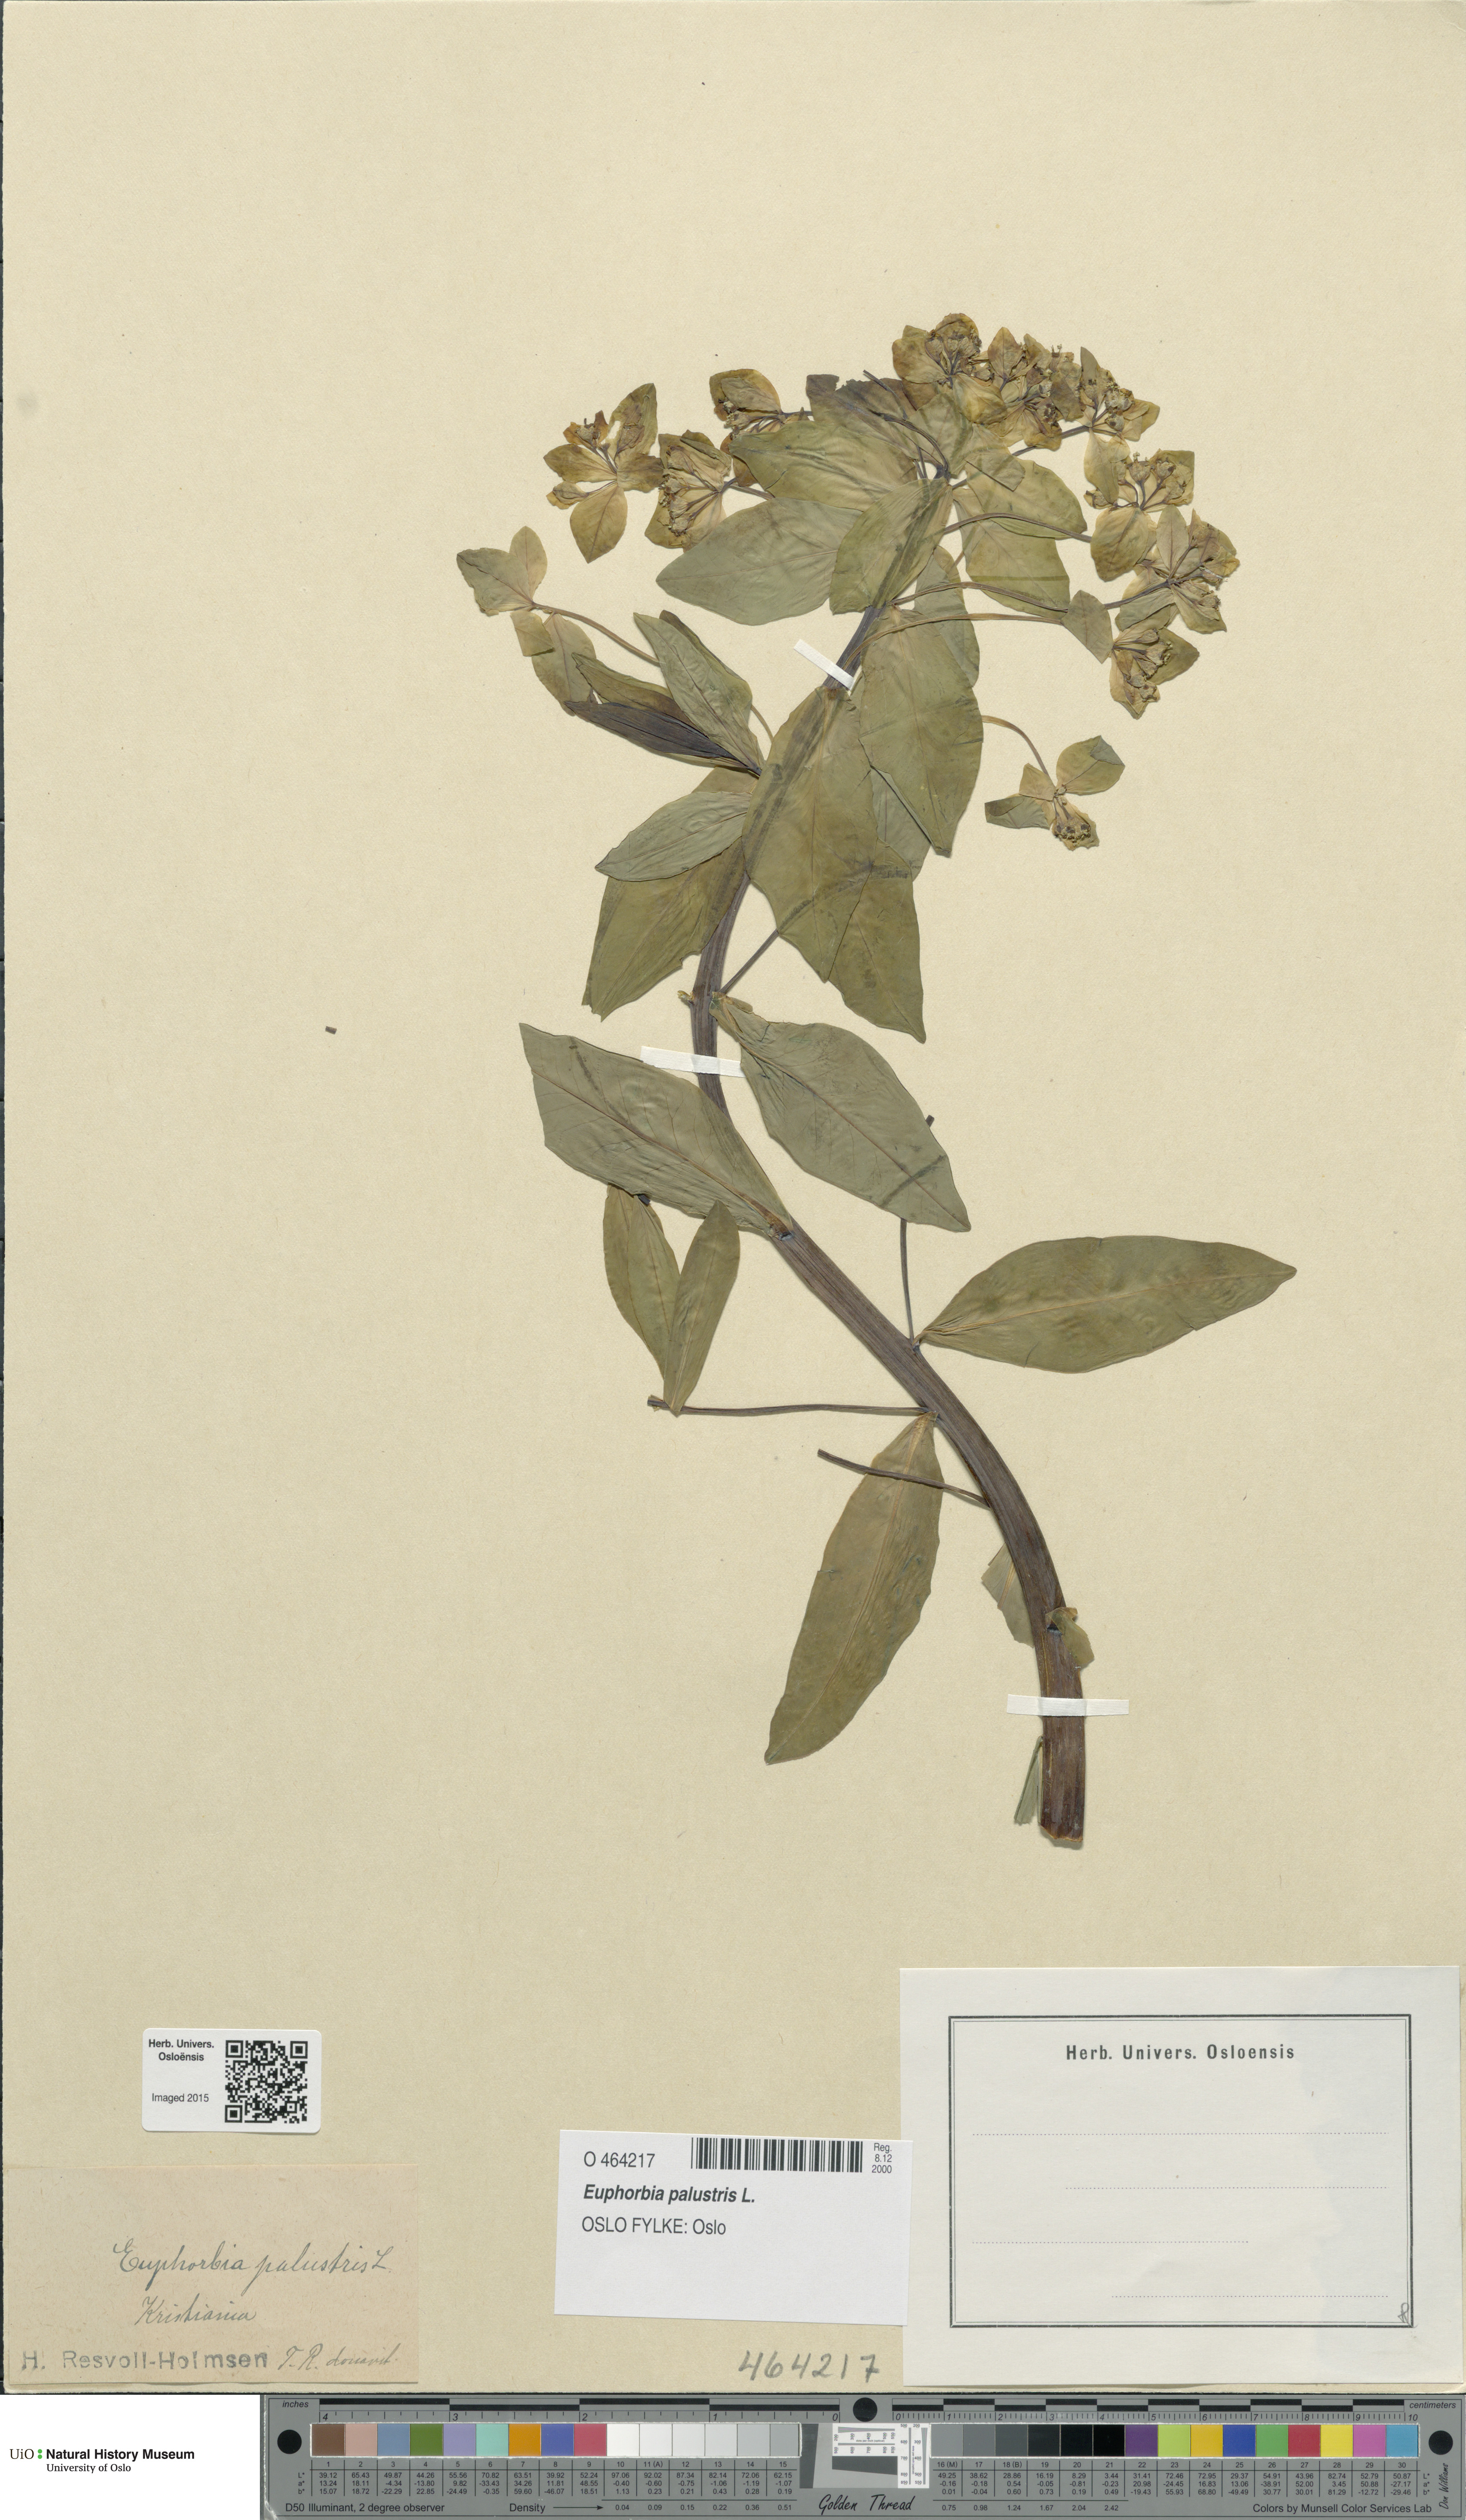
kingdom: Plantae
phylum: Tracheophyta
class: Magnoliopsida
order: Malpighiales
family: Euphorbiaceae
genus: Euphorbia
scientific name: Euphorbia palustris
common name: Marsh spurge
